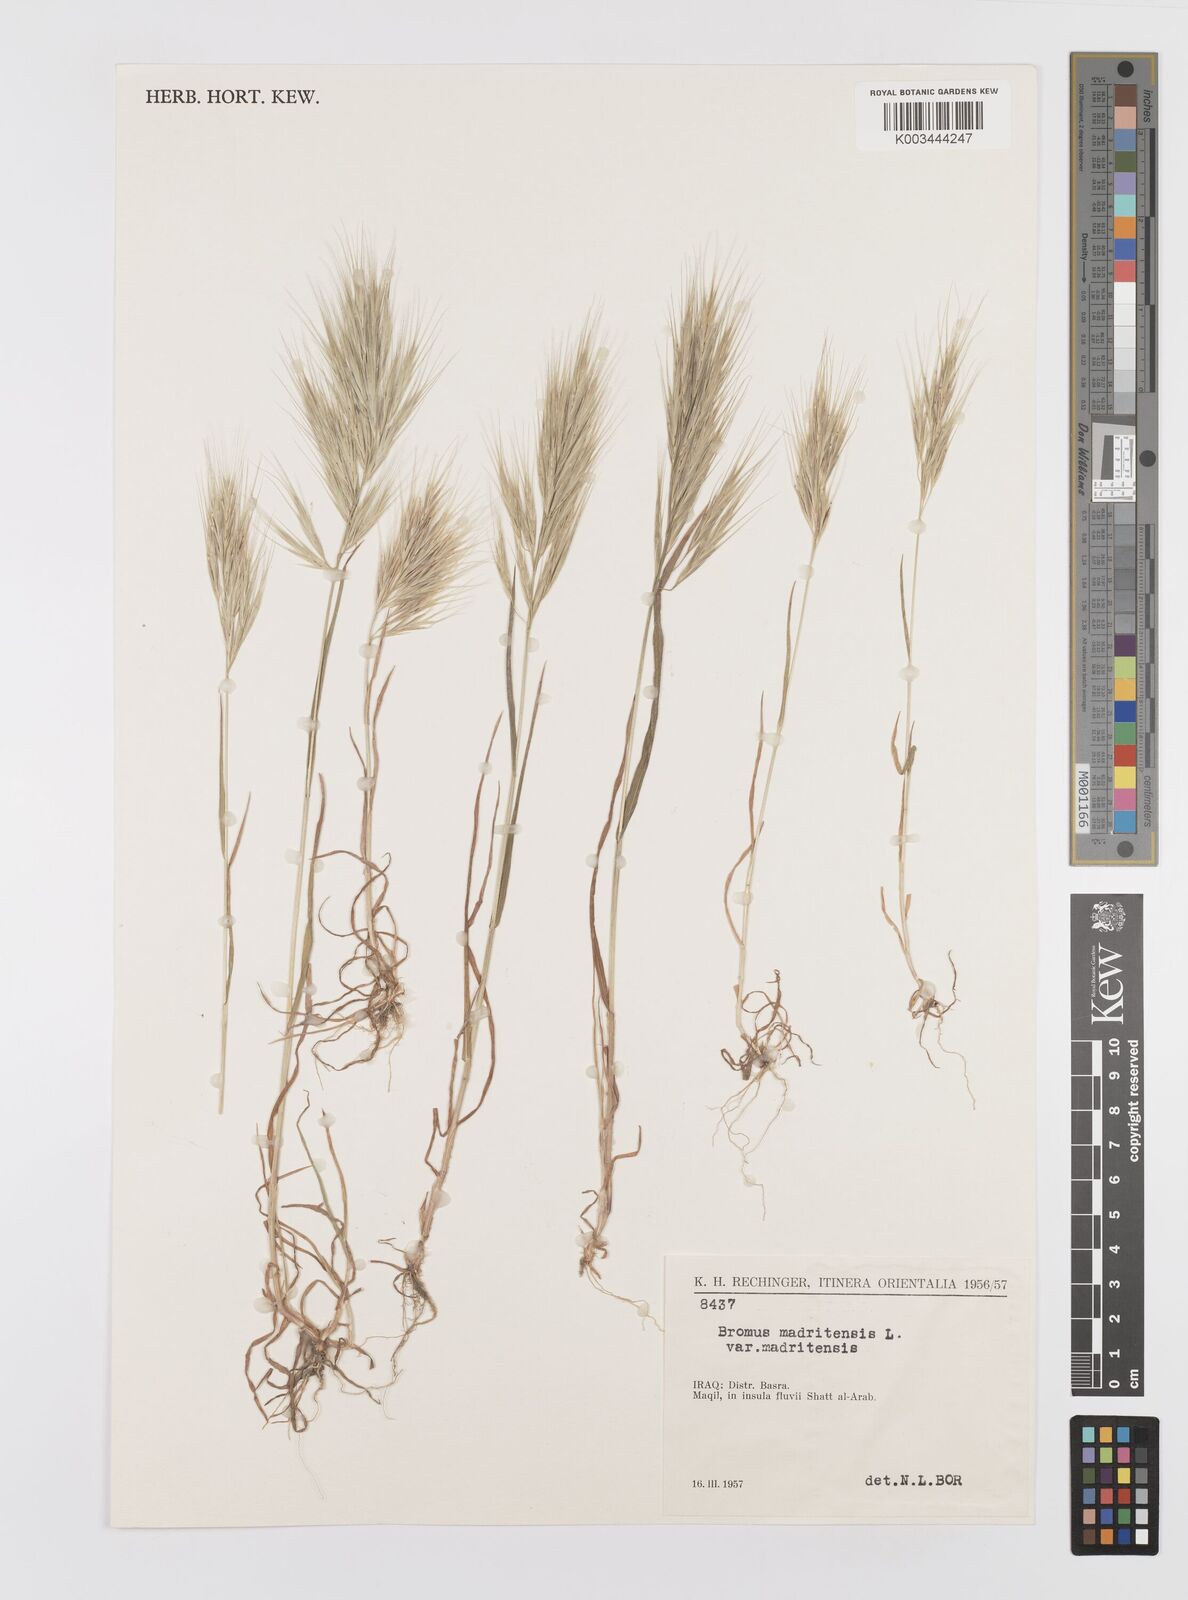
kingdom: Plantae
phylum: Tracheophyta
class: Liliopsida
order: Poales
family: Poaceae
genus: Bromus
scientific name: Bromus madritensis
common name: Compact brome
